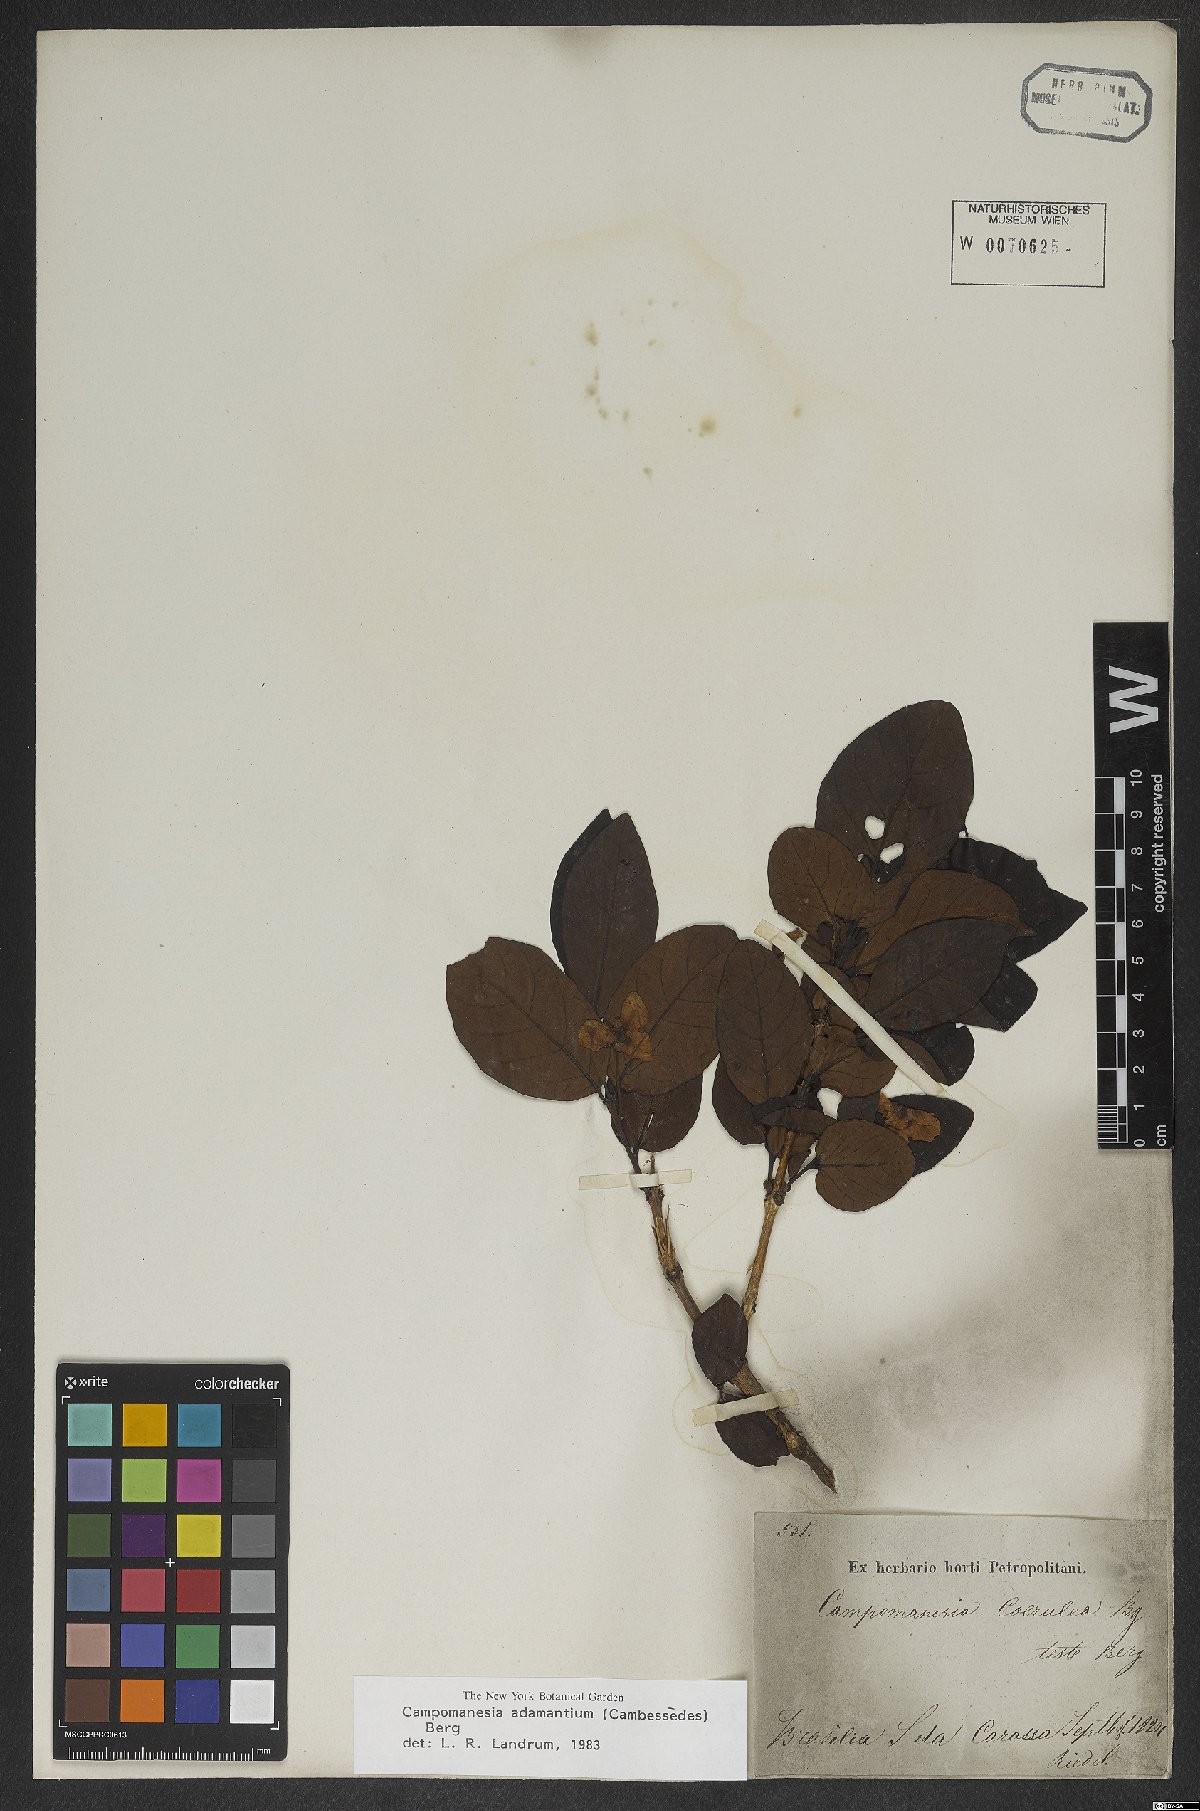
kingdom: Plantae
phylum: Tracheophyta
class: Magnoliopsida
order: Myrtales
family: Myrtaceae
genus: Campomanesia
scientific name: Campomanesia adamantium
